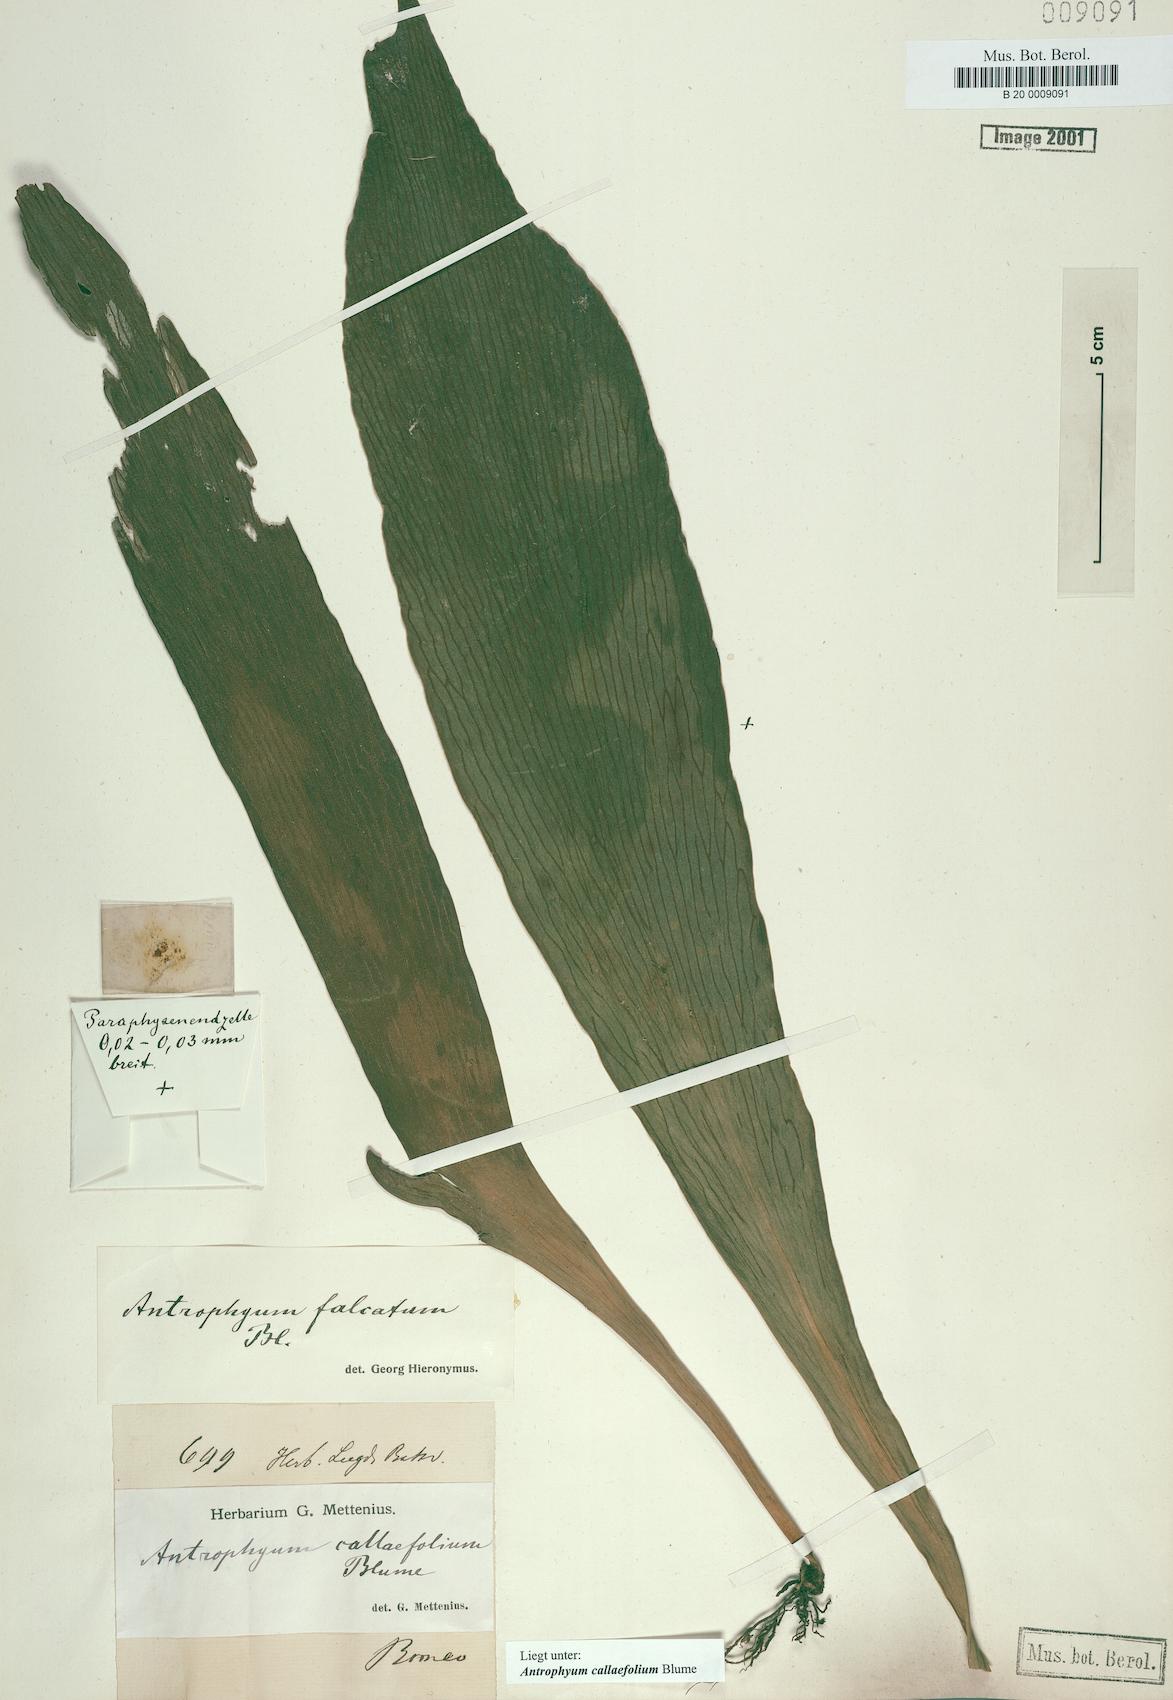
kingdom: Plantae
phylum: Tracheophyta
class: Polypodiopsida
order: Polypodiales
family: Pteridaceae
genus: Antrophyum
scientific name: Antrophyum callifolium
